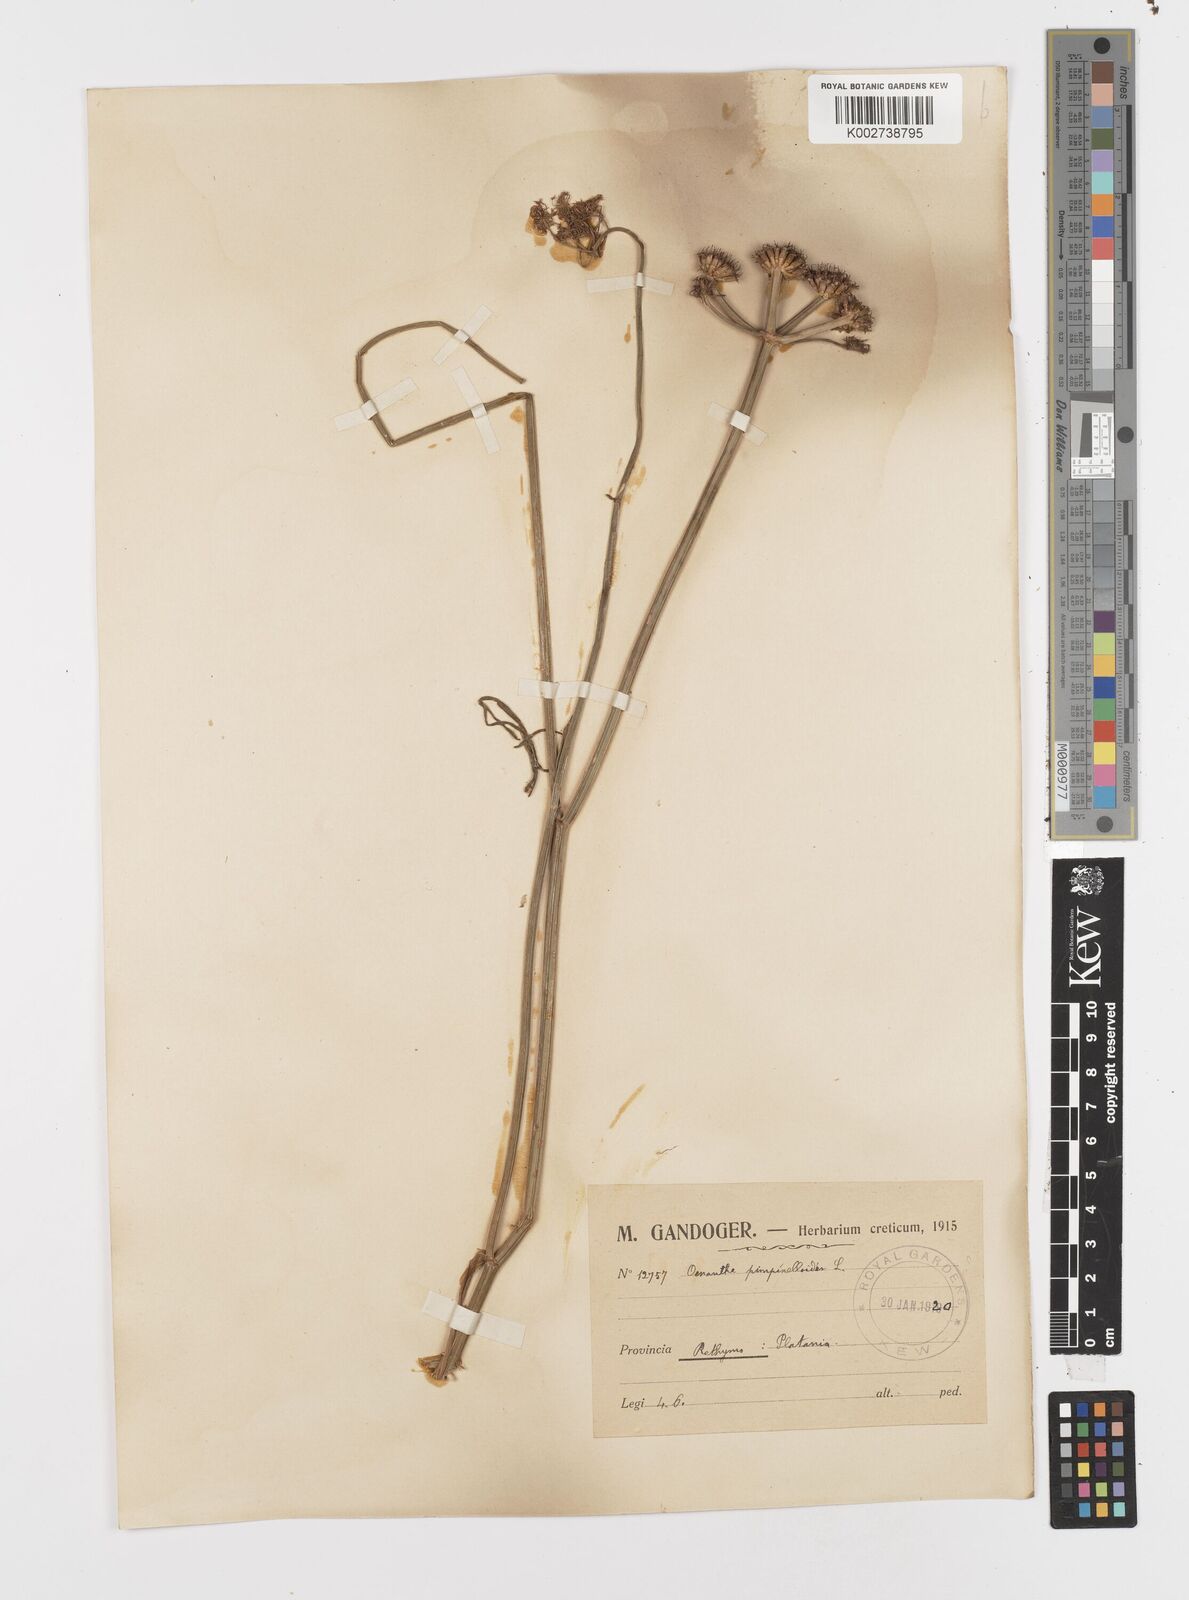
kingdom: Plantae
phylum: Tracheophyta
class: Magnoliopsida
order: Apiales
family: Apiaceae
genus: Oenanthe
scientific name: Oenanthe pimpinelloides
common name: Corky-fruited water-dropwort
